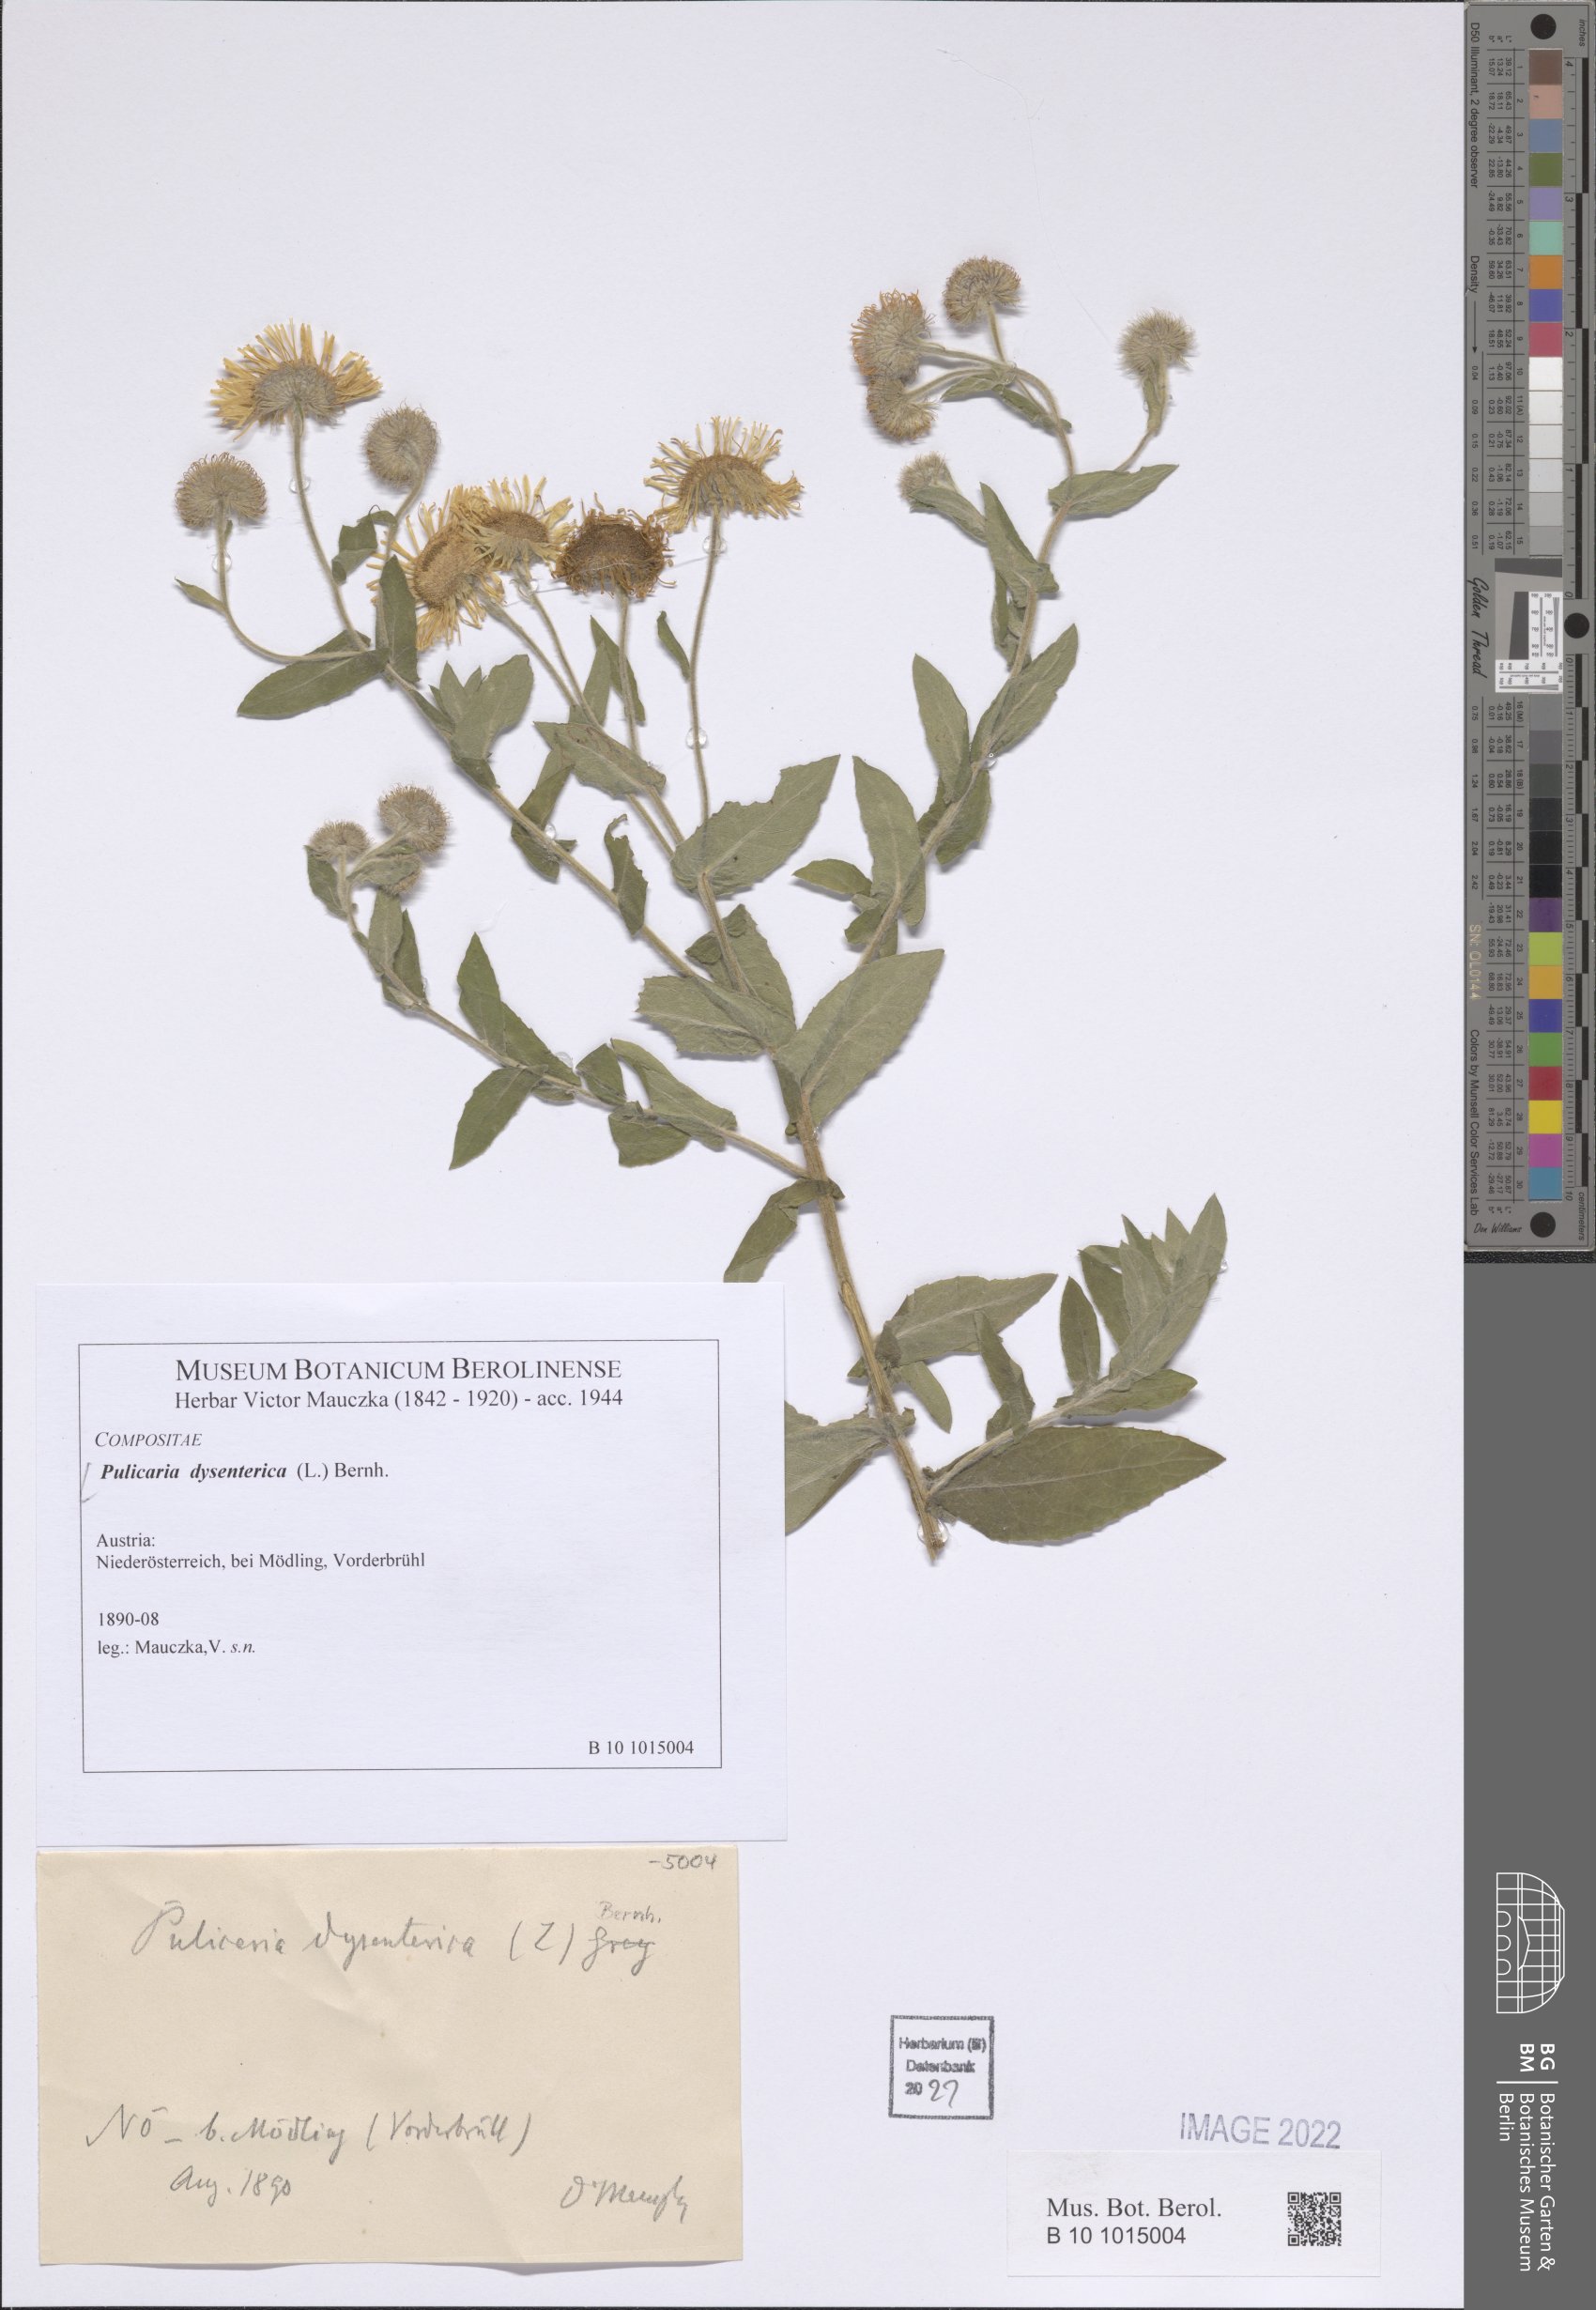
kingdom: Plantae
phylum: Tracheophyta
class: Magnoliopsida
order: Asterales
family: Asteraceae
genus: Pulicaria
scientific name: Pulicaria dysenterica
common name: Common fleabane
